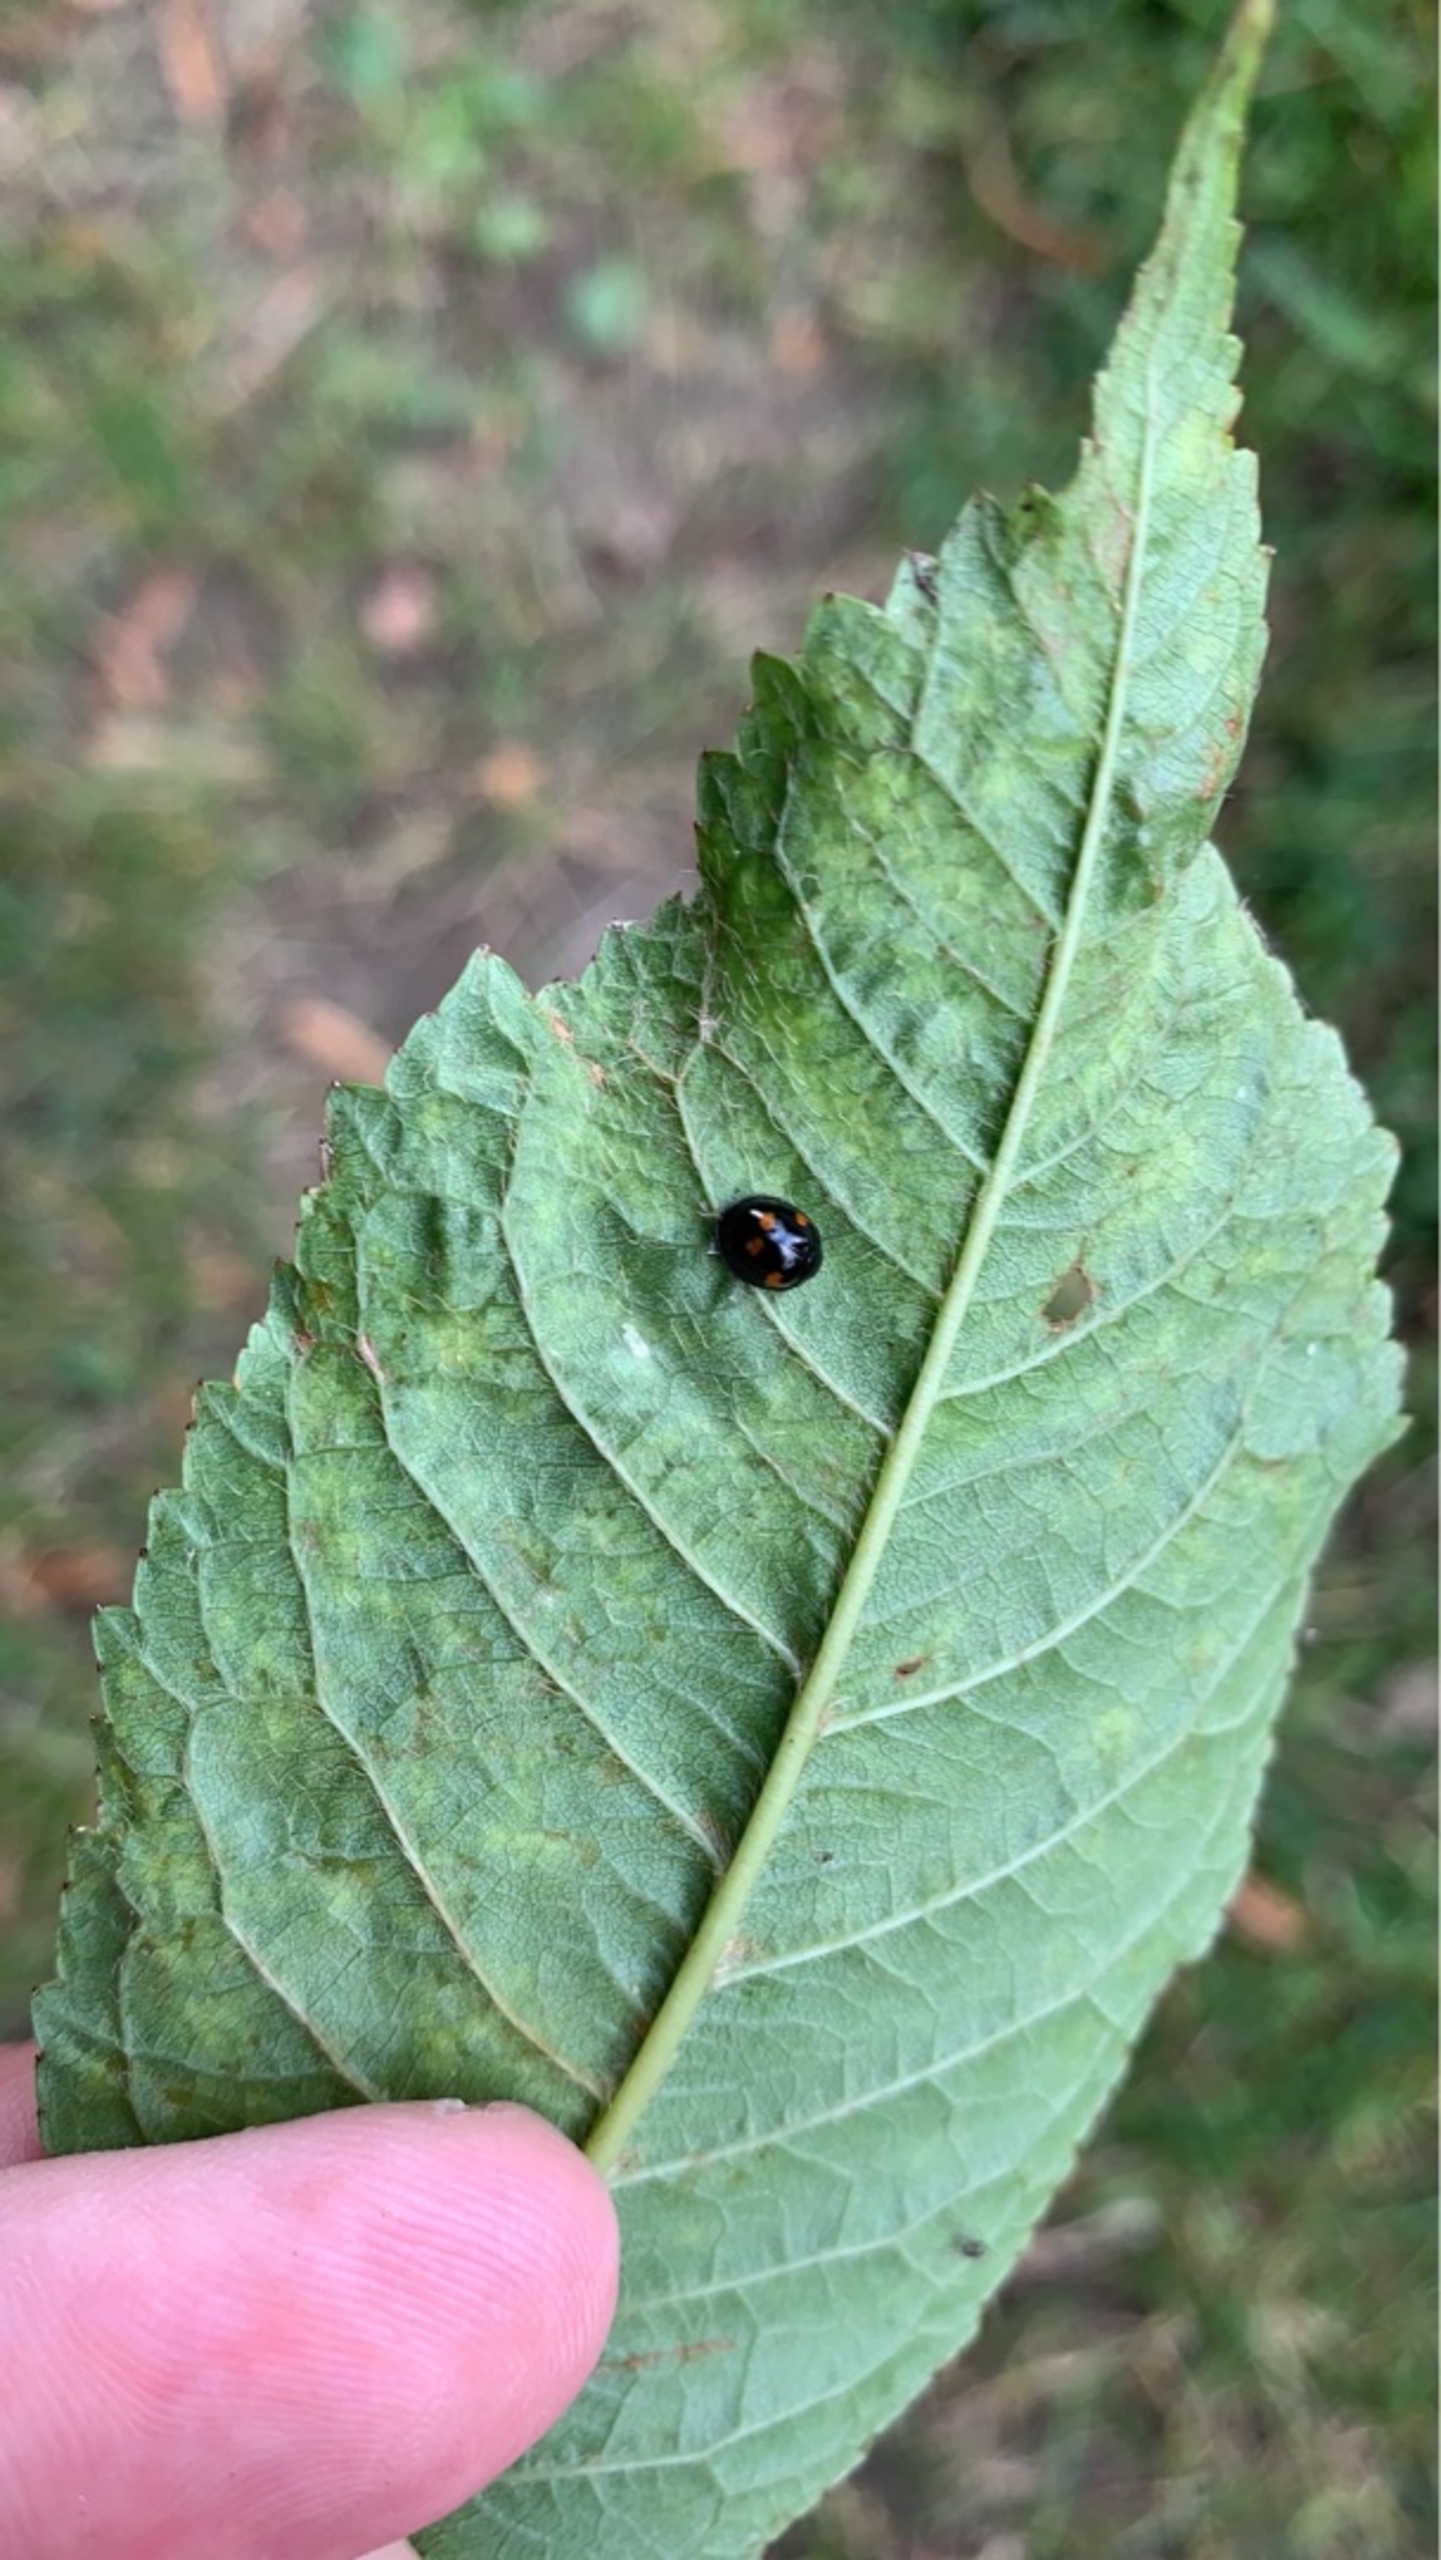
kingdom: Animalia
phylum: Arthropoda
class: Insecta
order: Coleoptera
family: Coccinellidae
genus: Brumus
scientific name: Brumus quadripustulatus
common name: Fireplettet mariehøne
